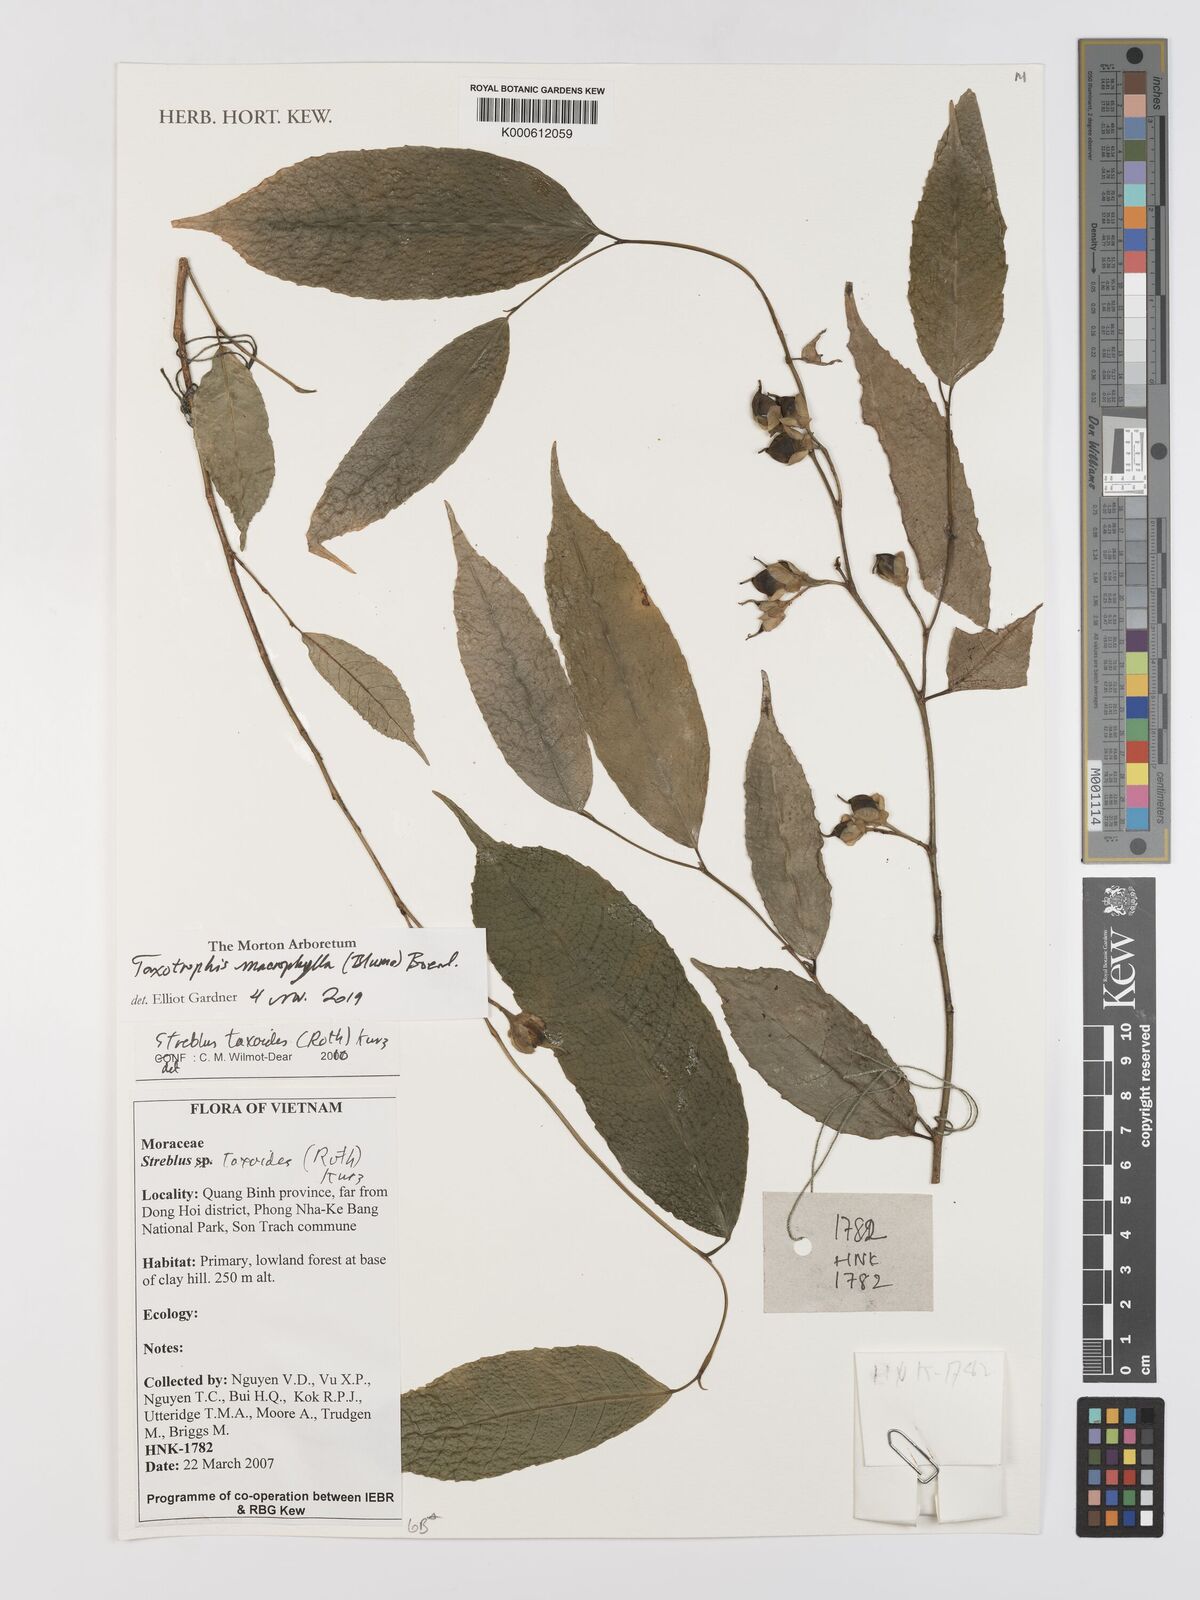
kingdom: Plantae
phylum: Tracheophyta
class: Magnoliopsida
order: Rosales
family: Moraceae
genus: Taxotrophis
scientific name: Taxotrophis macrophylla
